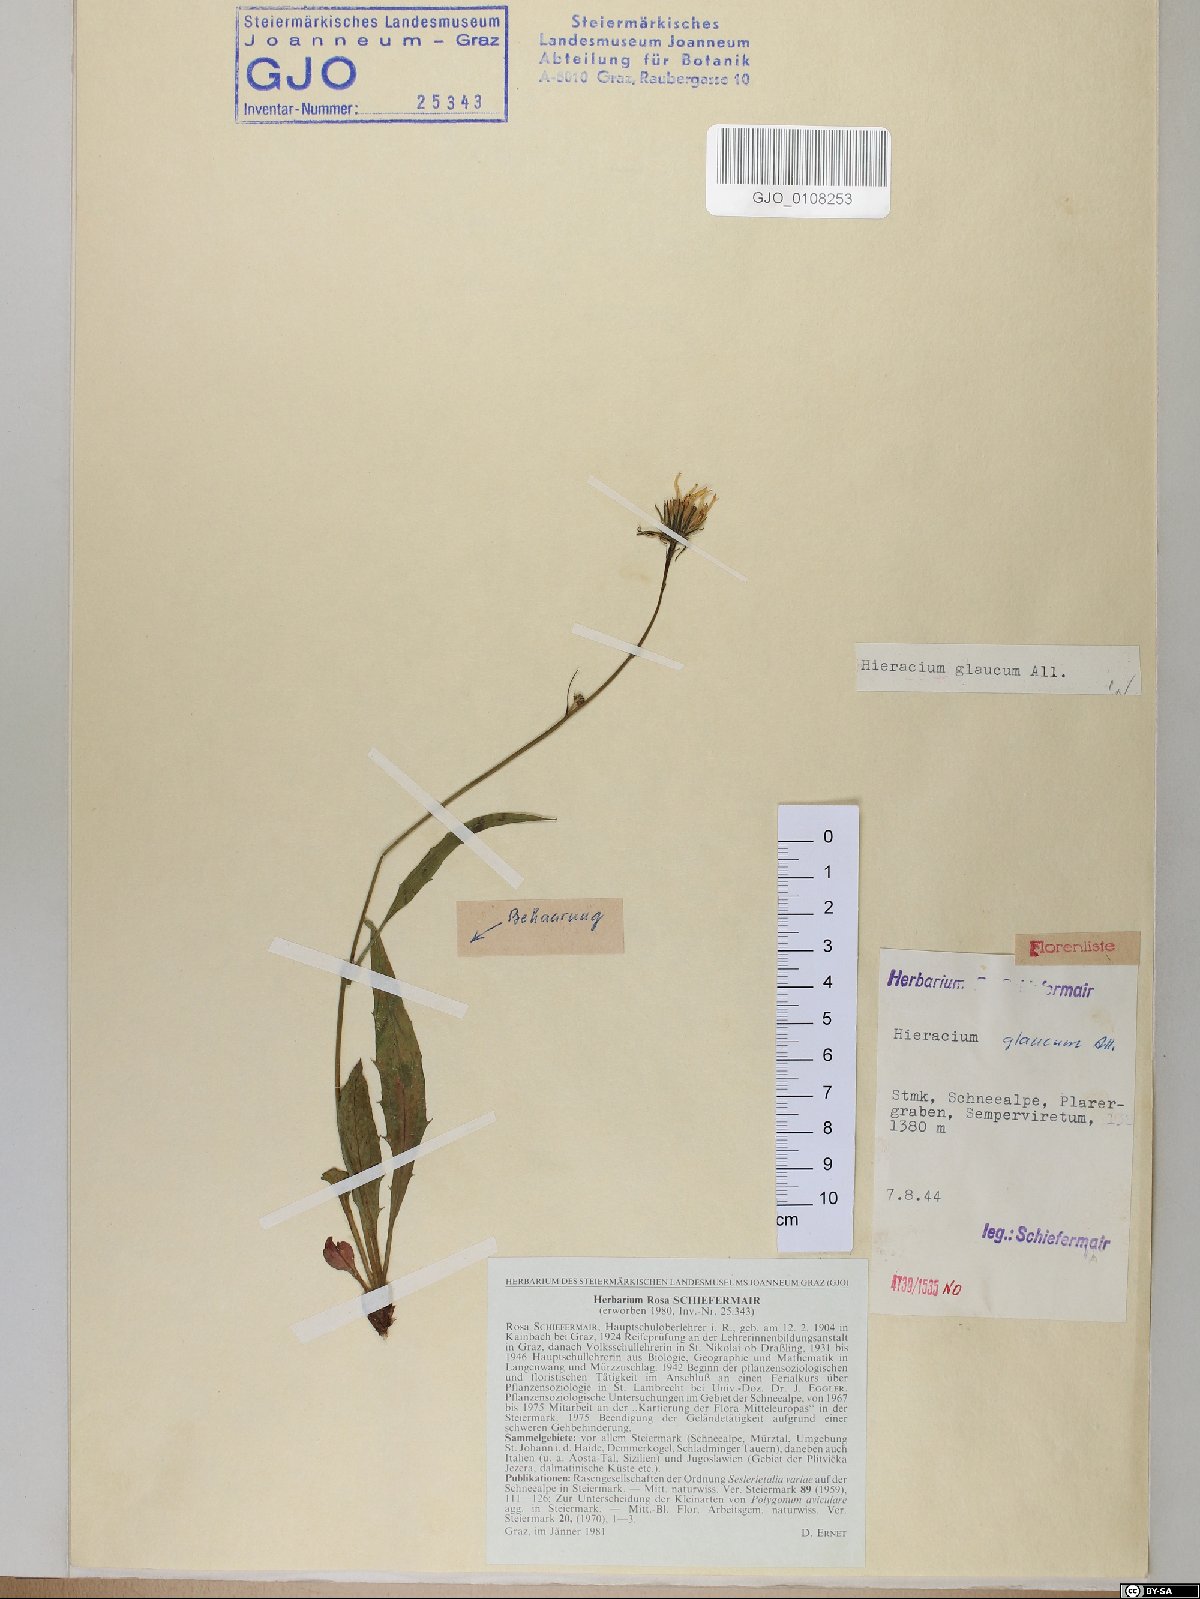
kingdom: Plantae
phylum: Tracheophyta
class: Magnoliopsida
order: Asterales
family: Asteraceae
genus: Hieracium
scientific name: Hieracium glaucum
